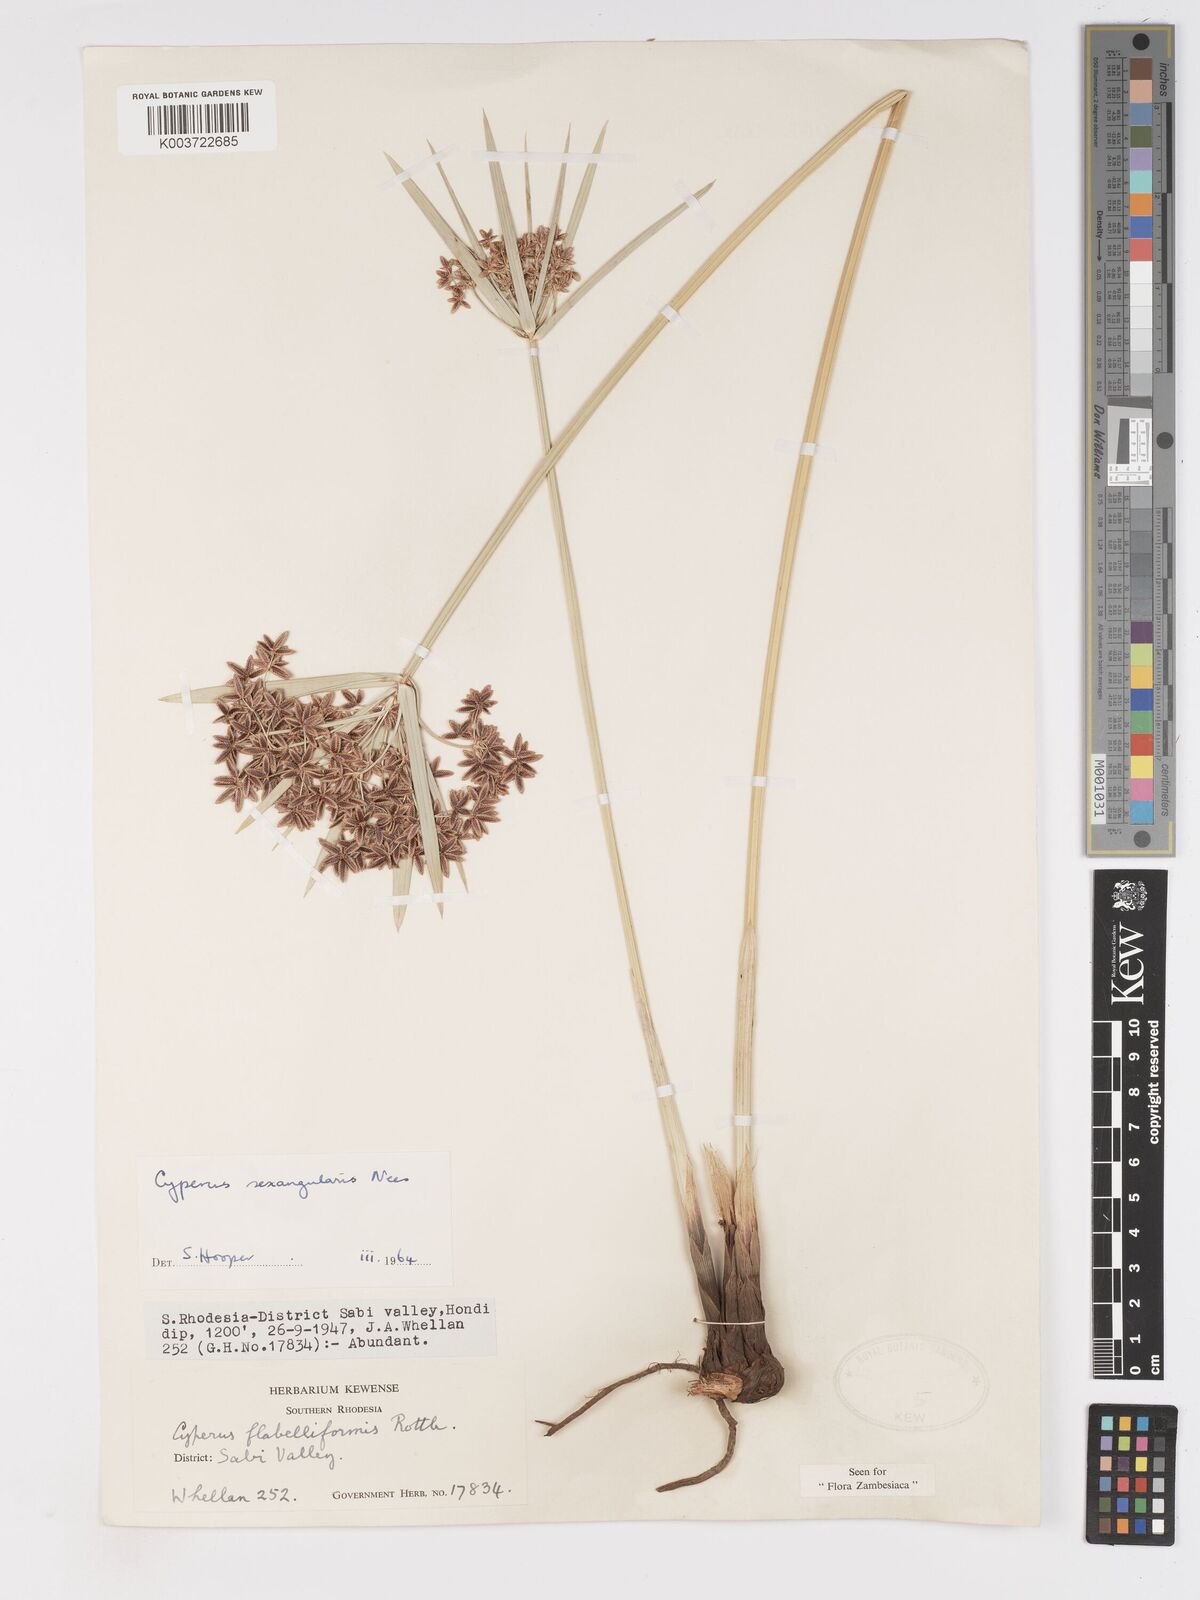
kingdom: Plantae
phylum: Tracheophyta
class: Liliopsida
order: Poales
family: Cyperaceae
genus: Cyperus
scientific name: Cyperus sexangularis
